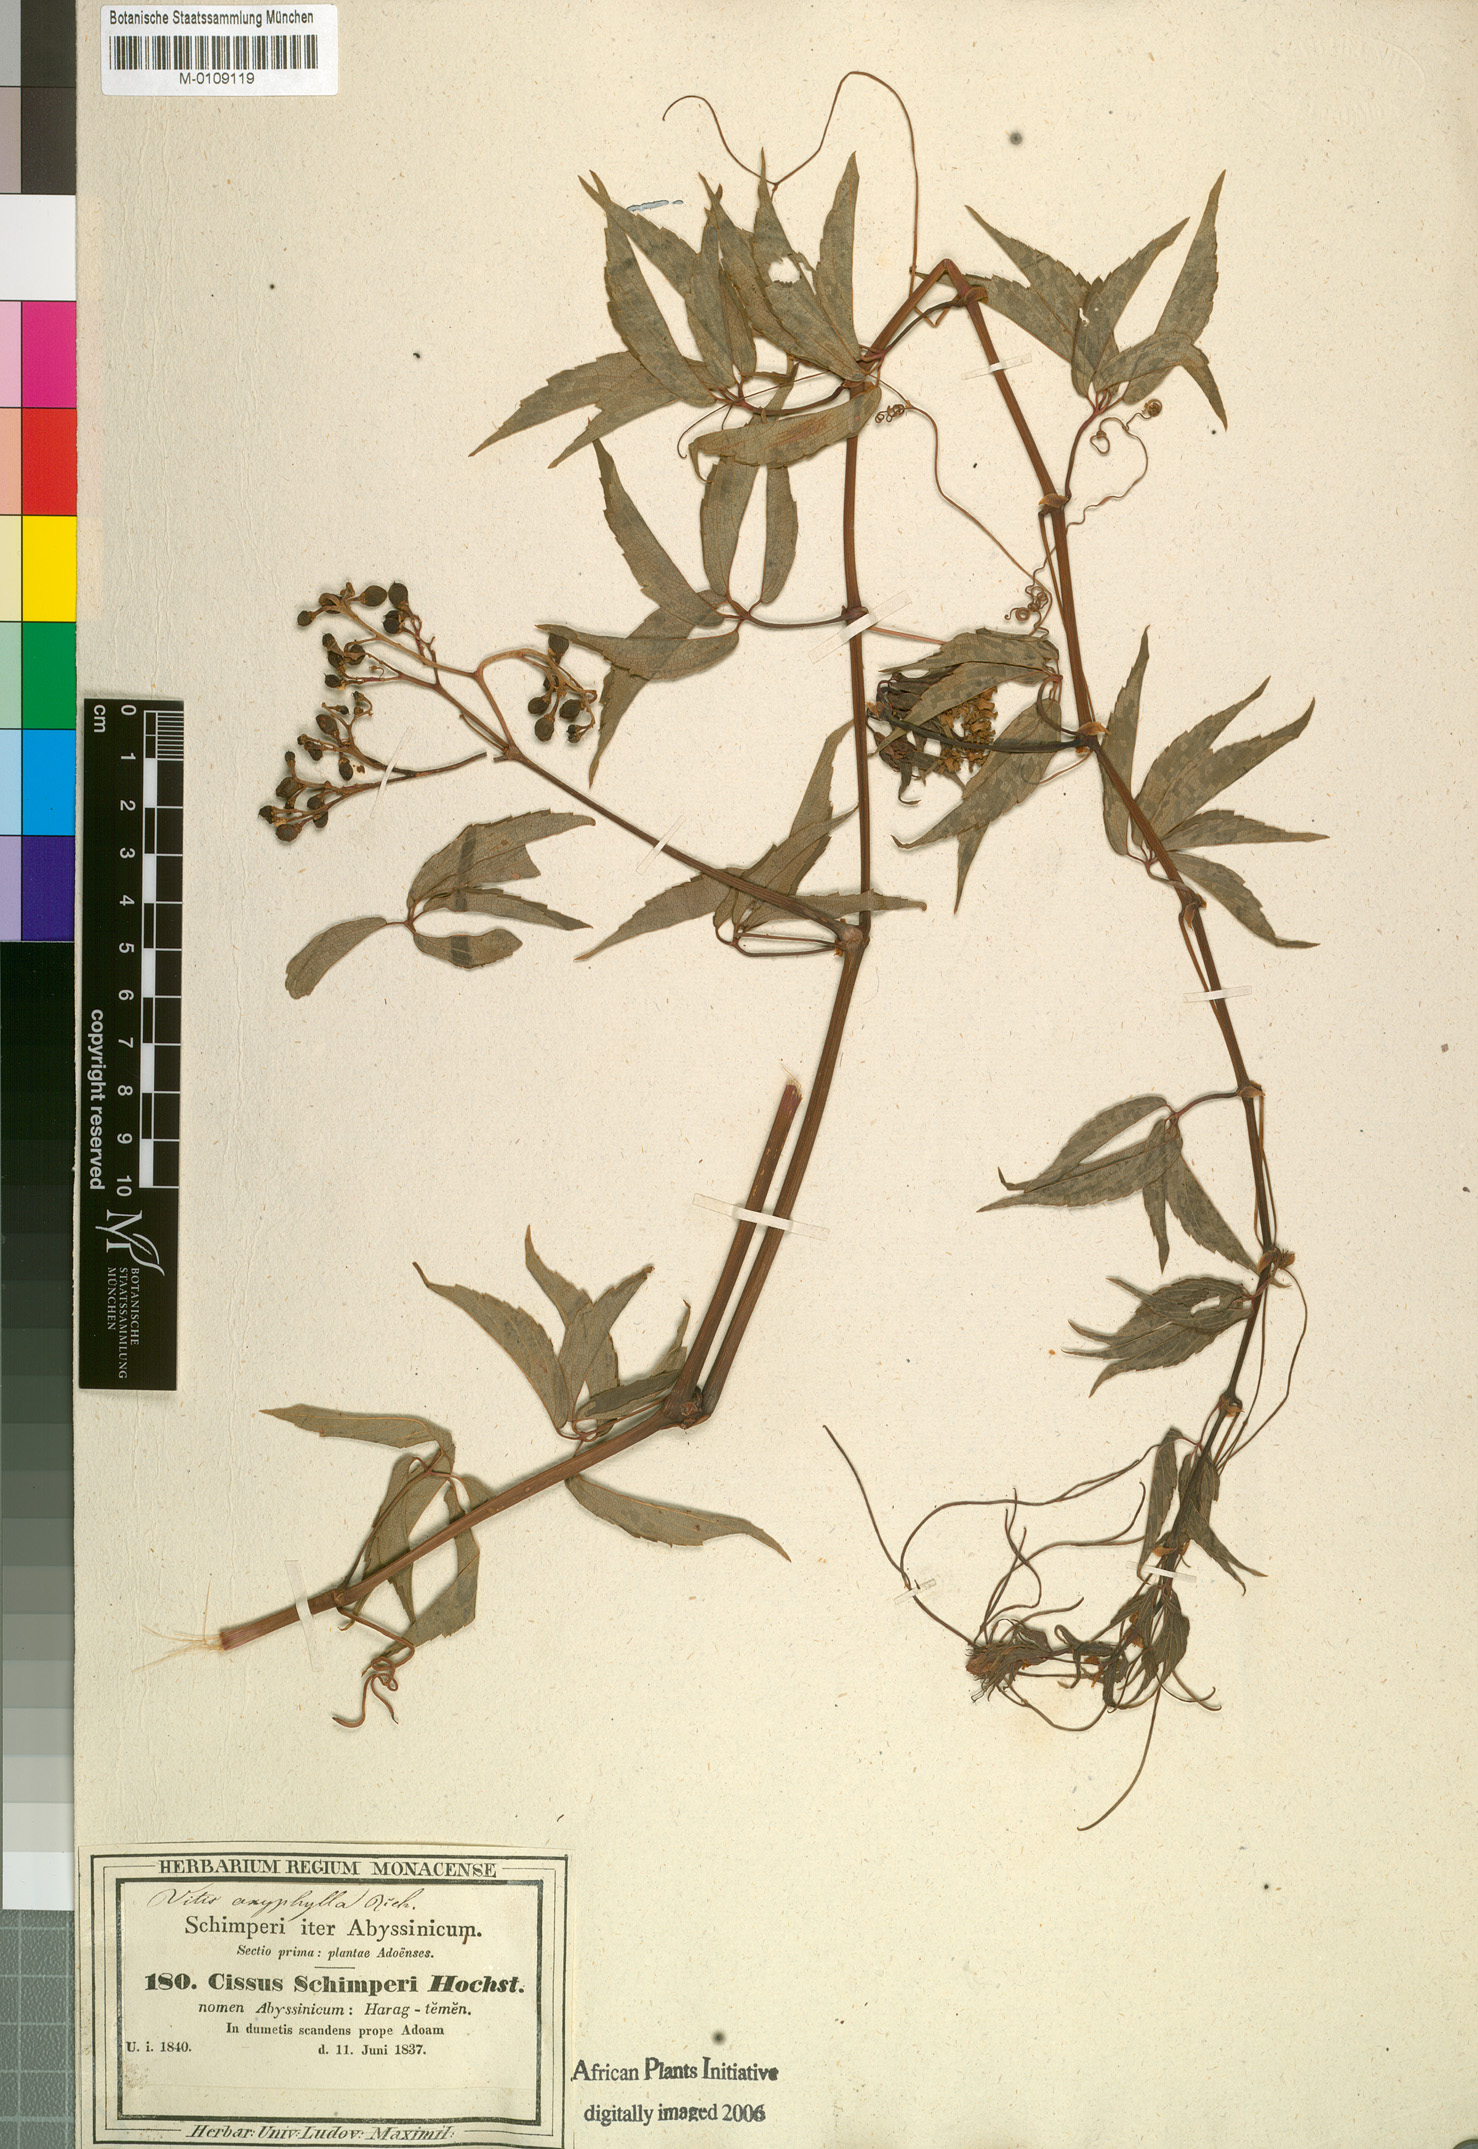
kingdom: Plantae
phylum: Tracheophyta
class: Magnoliopsida
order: Vitales
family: Vitaceae
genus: Cyphostemma
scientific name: Cyphostemma oxyphyllum
